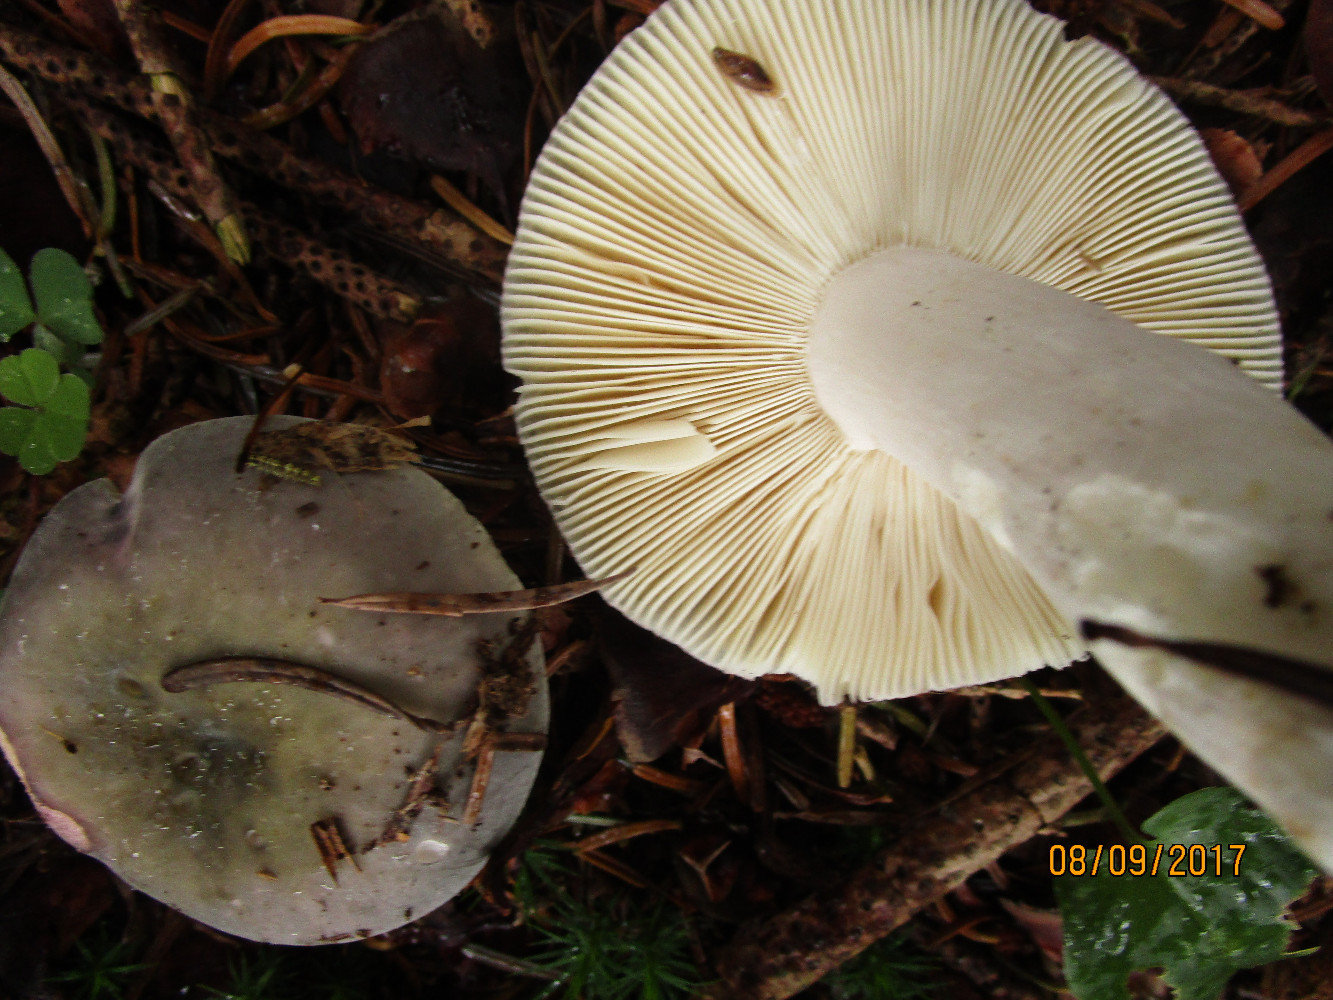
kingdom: Fungi
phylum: Basidiomycota
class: Agaricomycetes
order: Russulales
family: Russulaceae
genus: Russula
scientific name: Russula grisea
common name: grålig skørhat
